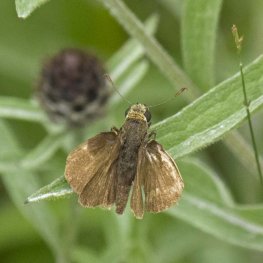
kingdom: Animalia
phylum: Arthropoda
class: Insecta
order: Lepidoptera
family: Hesperiidae
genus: Euphyes
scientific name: Euphyes vestris
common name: Dun Skipper
